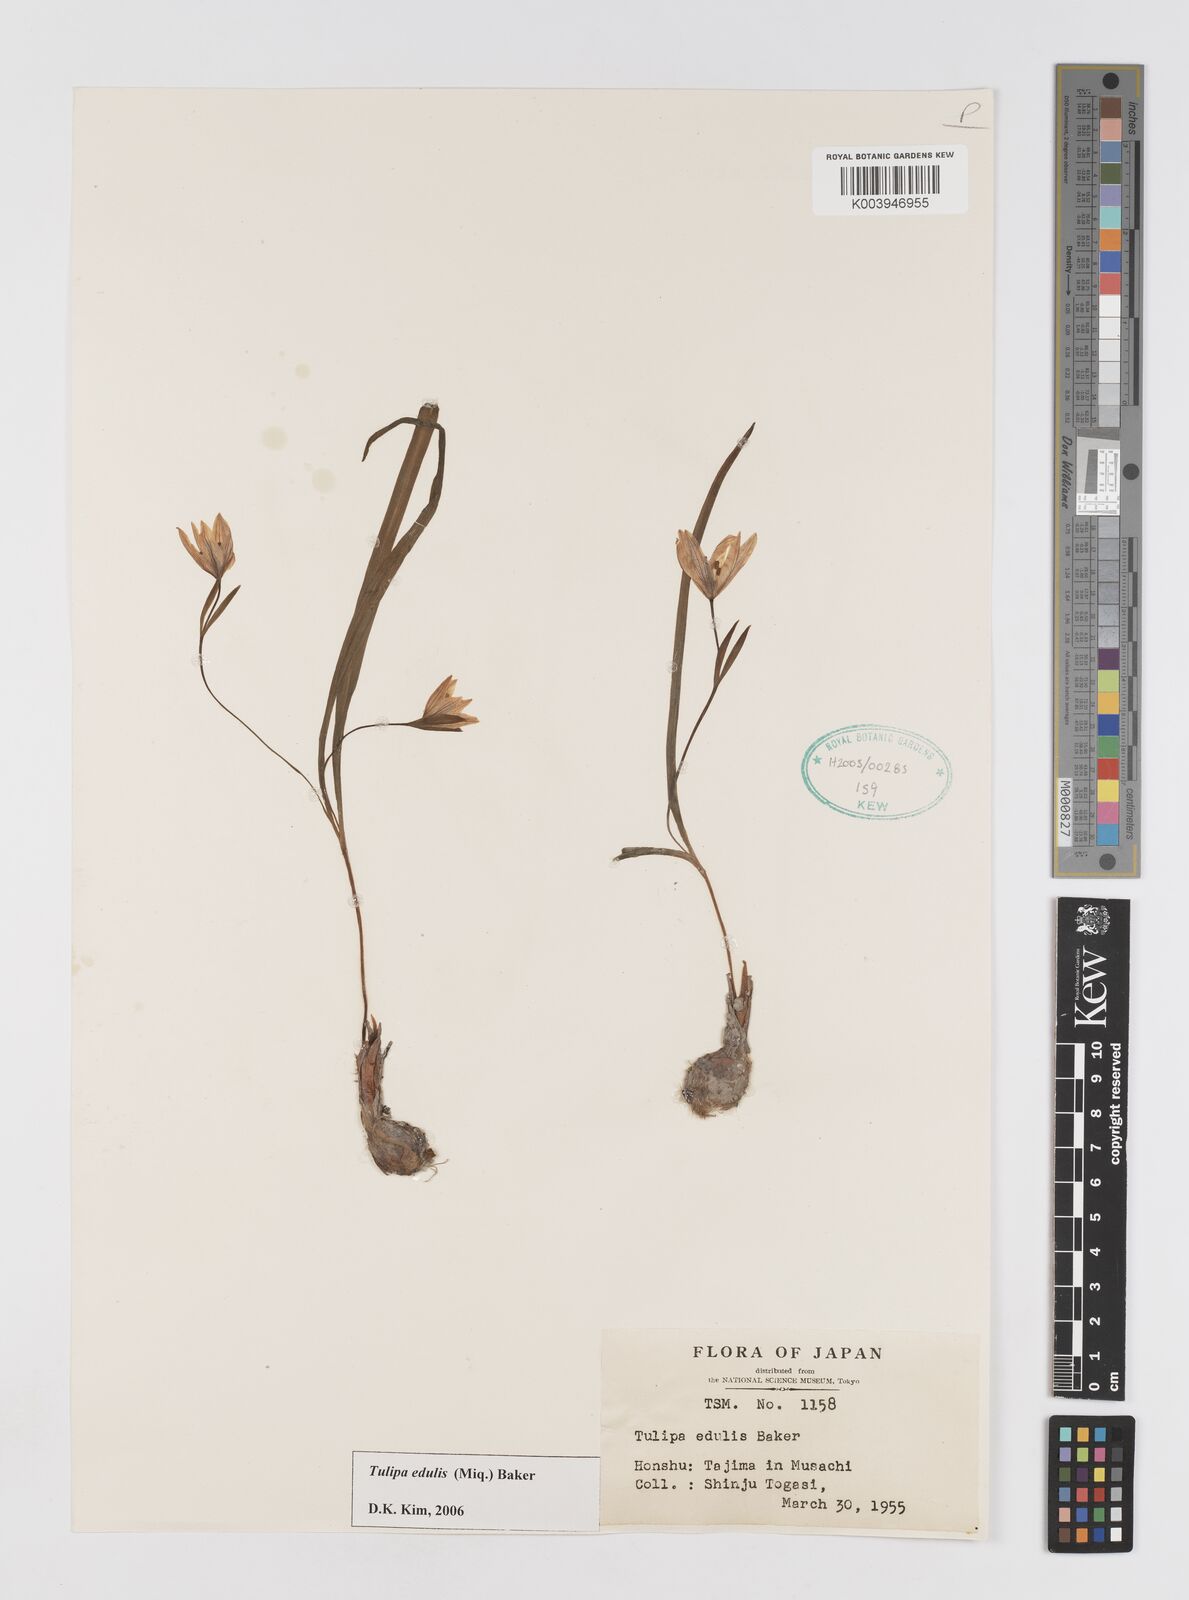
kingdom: Plantae
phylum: Tracheophyta
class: Liliopsida
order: Liliales
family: Liliaceae
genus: Amana
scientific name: Amana edulis
